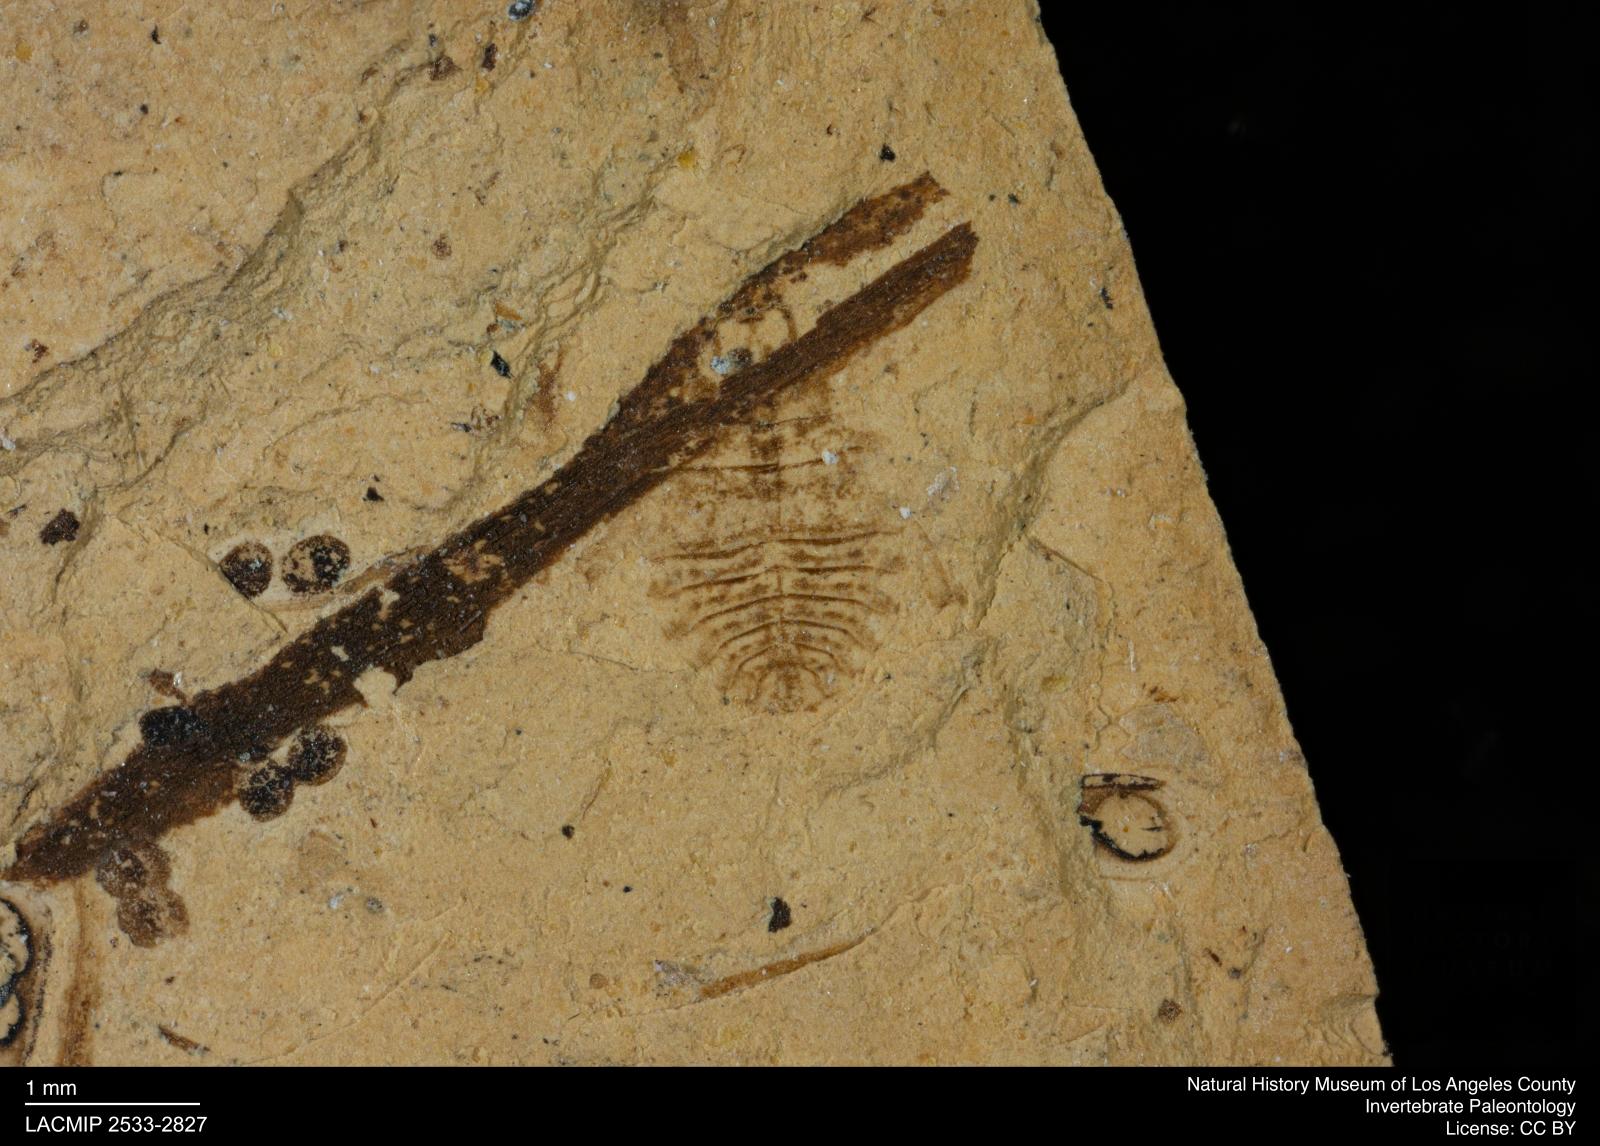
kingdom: Animalia
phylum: Arthropoda
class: Insecta
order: Hemiptera
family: Naucoridae
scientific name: Naucoridae
